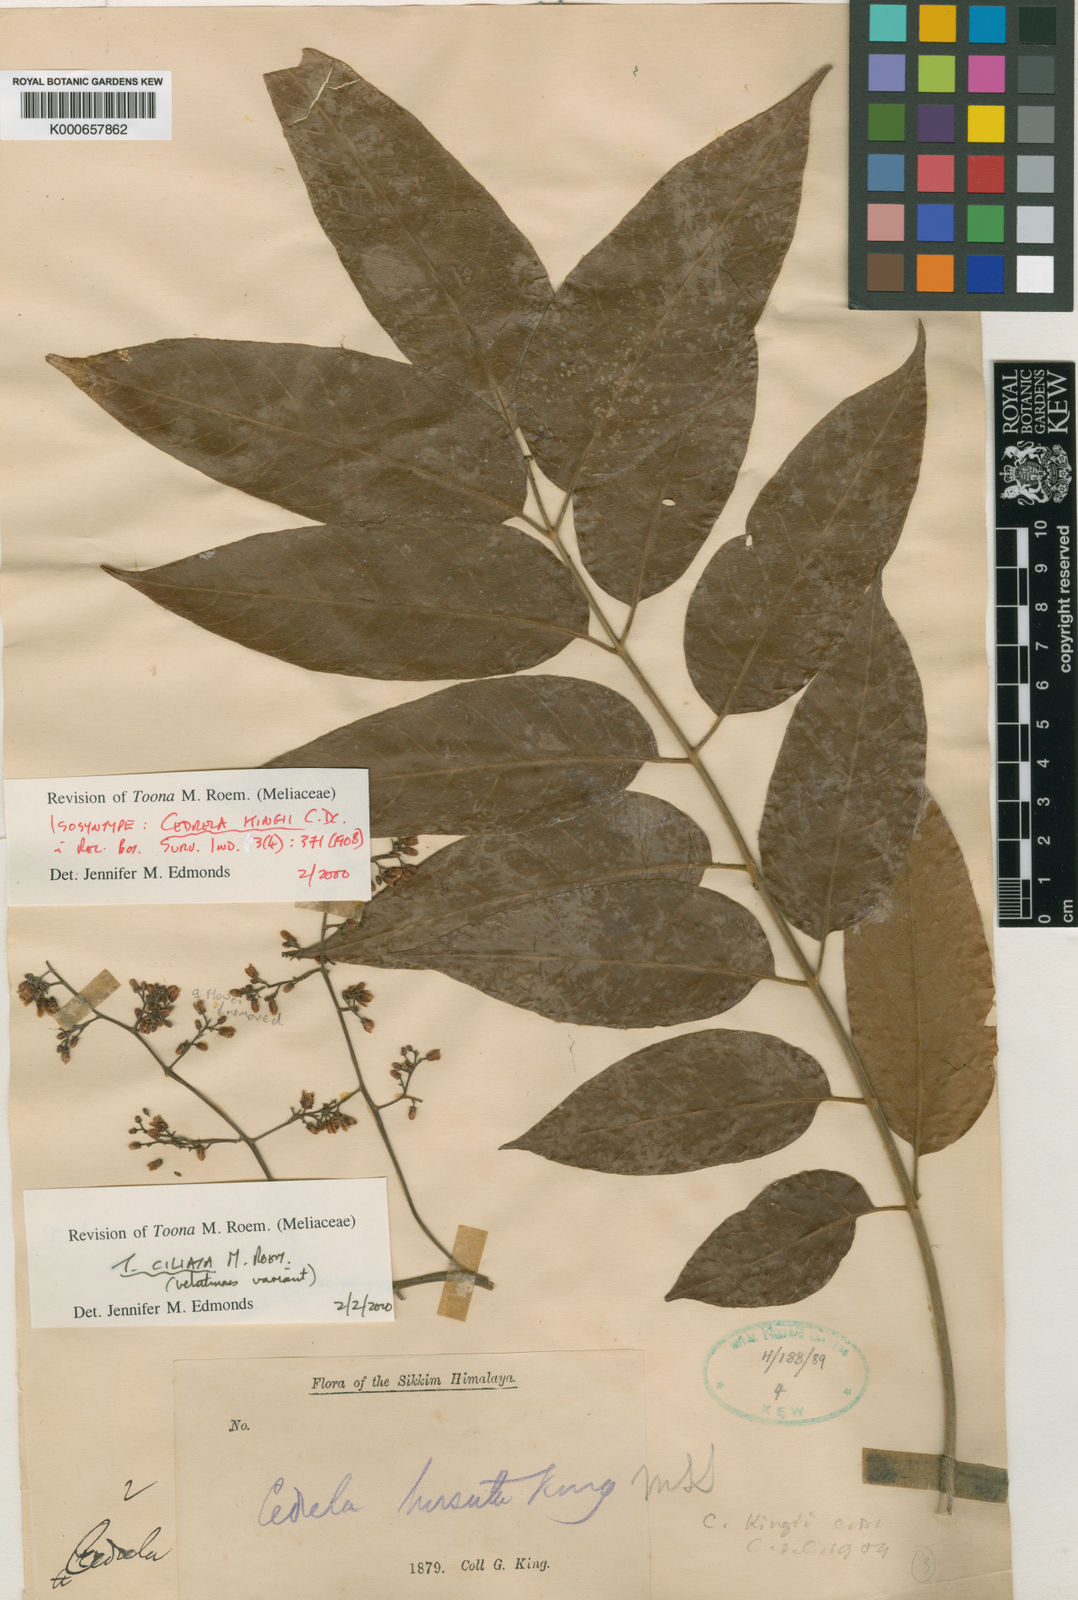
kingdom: Plantae
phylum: Tracheophyta
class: Magnoliopsida
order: Sapindales
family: Meliaceae
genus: Toona
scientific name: Toona ciliata
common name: Australian redcedar
